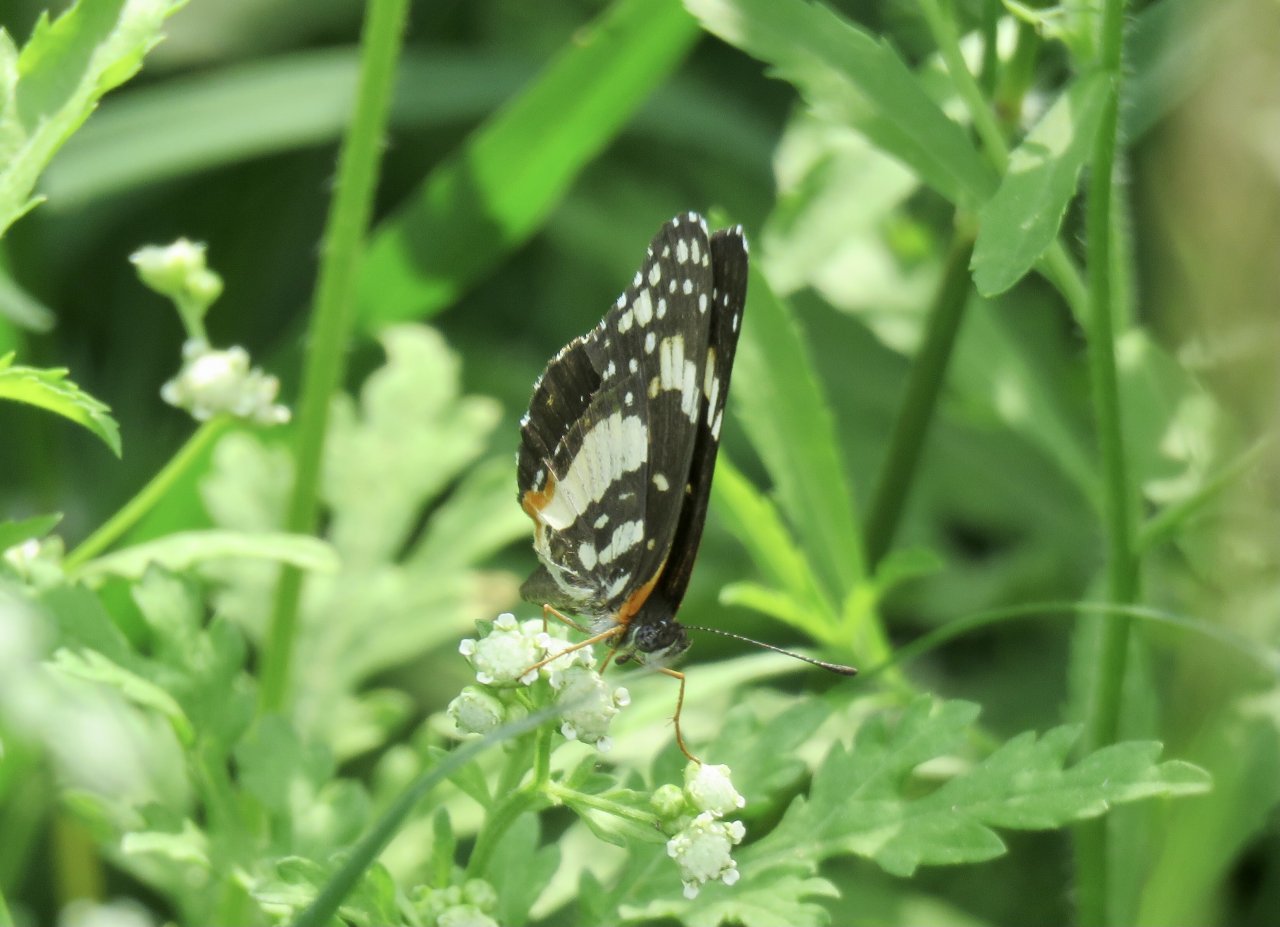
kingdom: Animalia
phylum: Arthropoda
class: Insecta
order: Lepidoptera
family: Nymphalidae
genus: Chlosyne
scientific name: Chlosyne lacinia
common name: Bordered Patch
